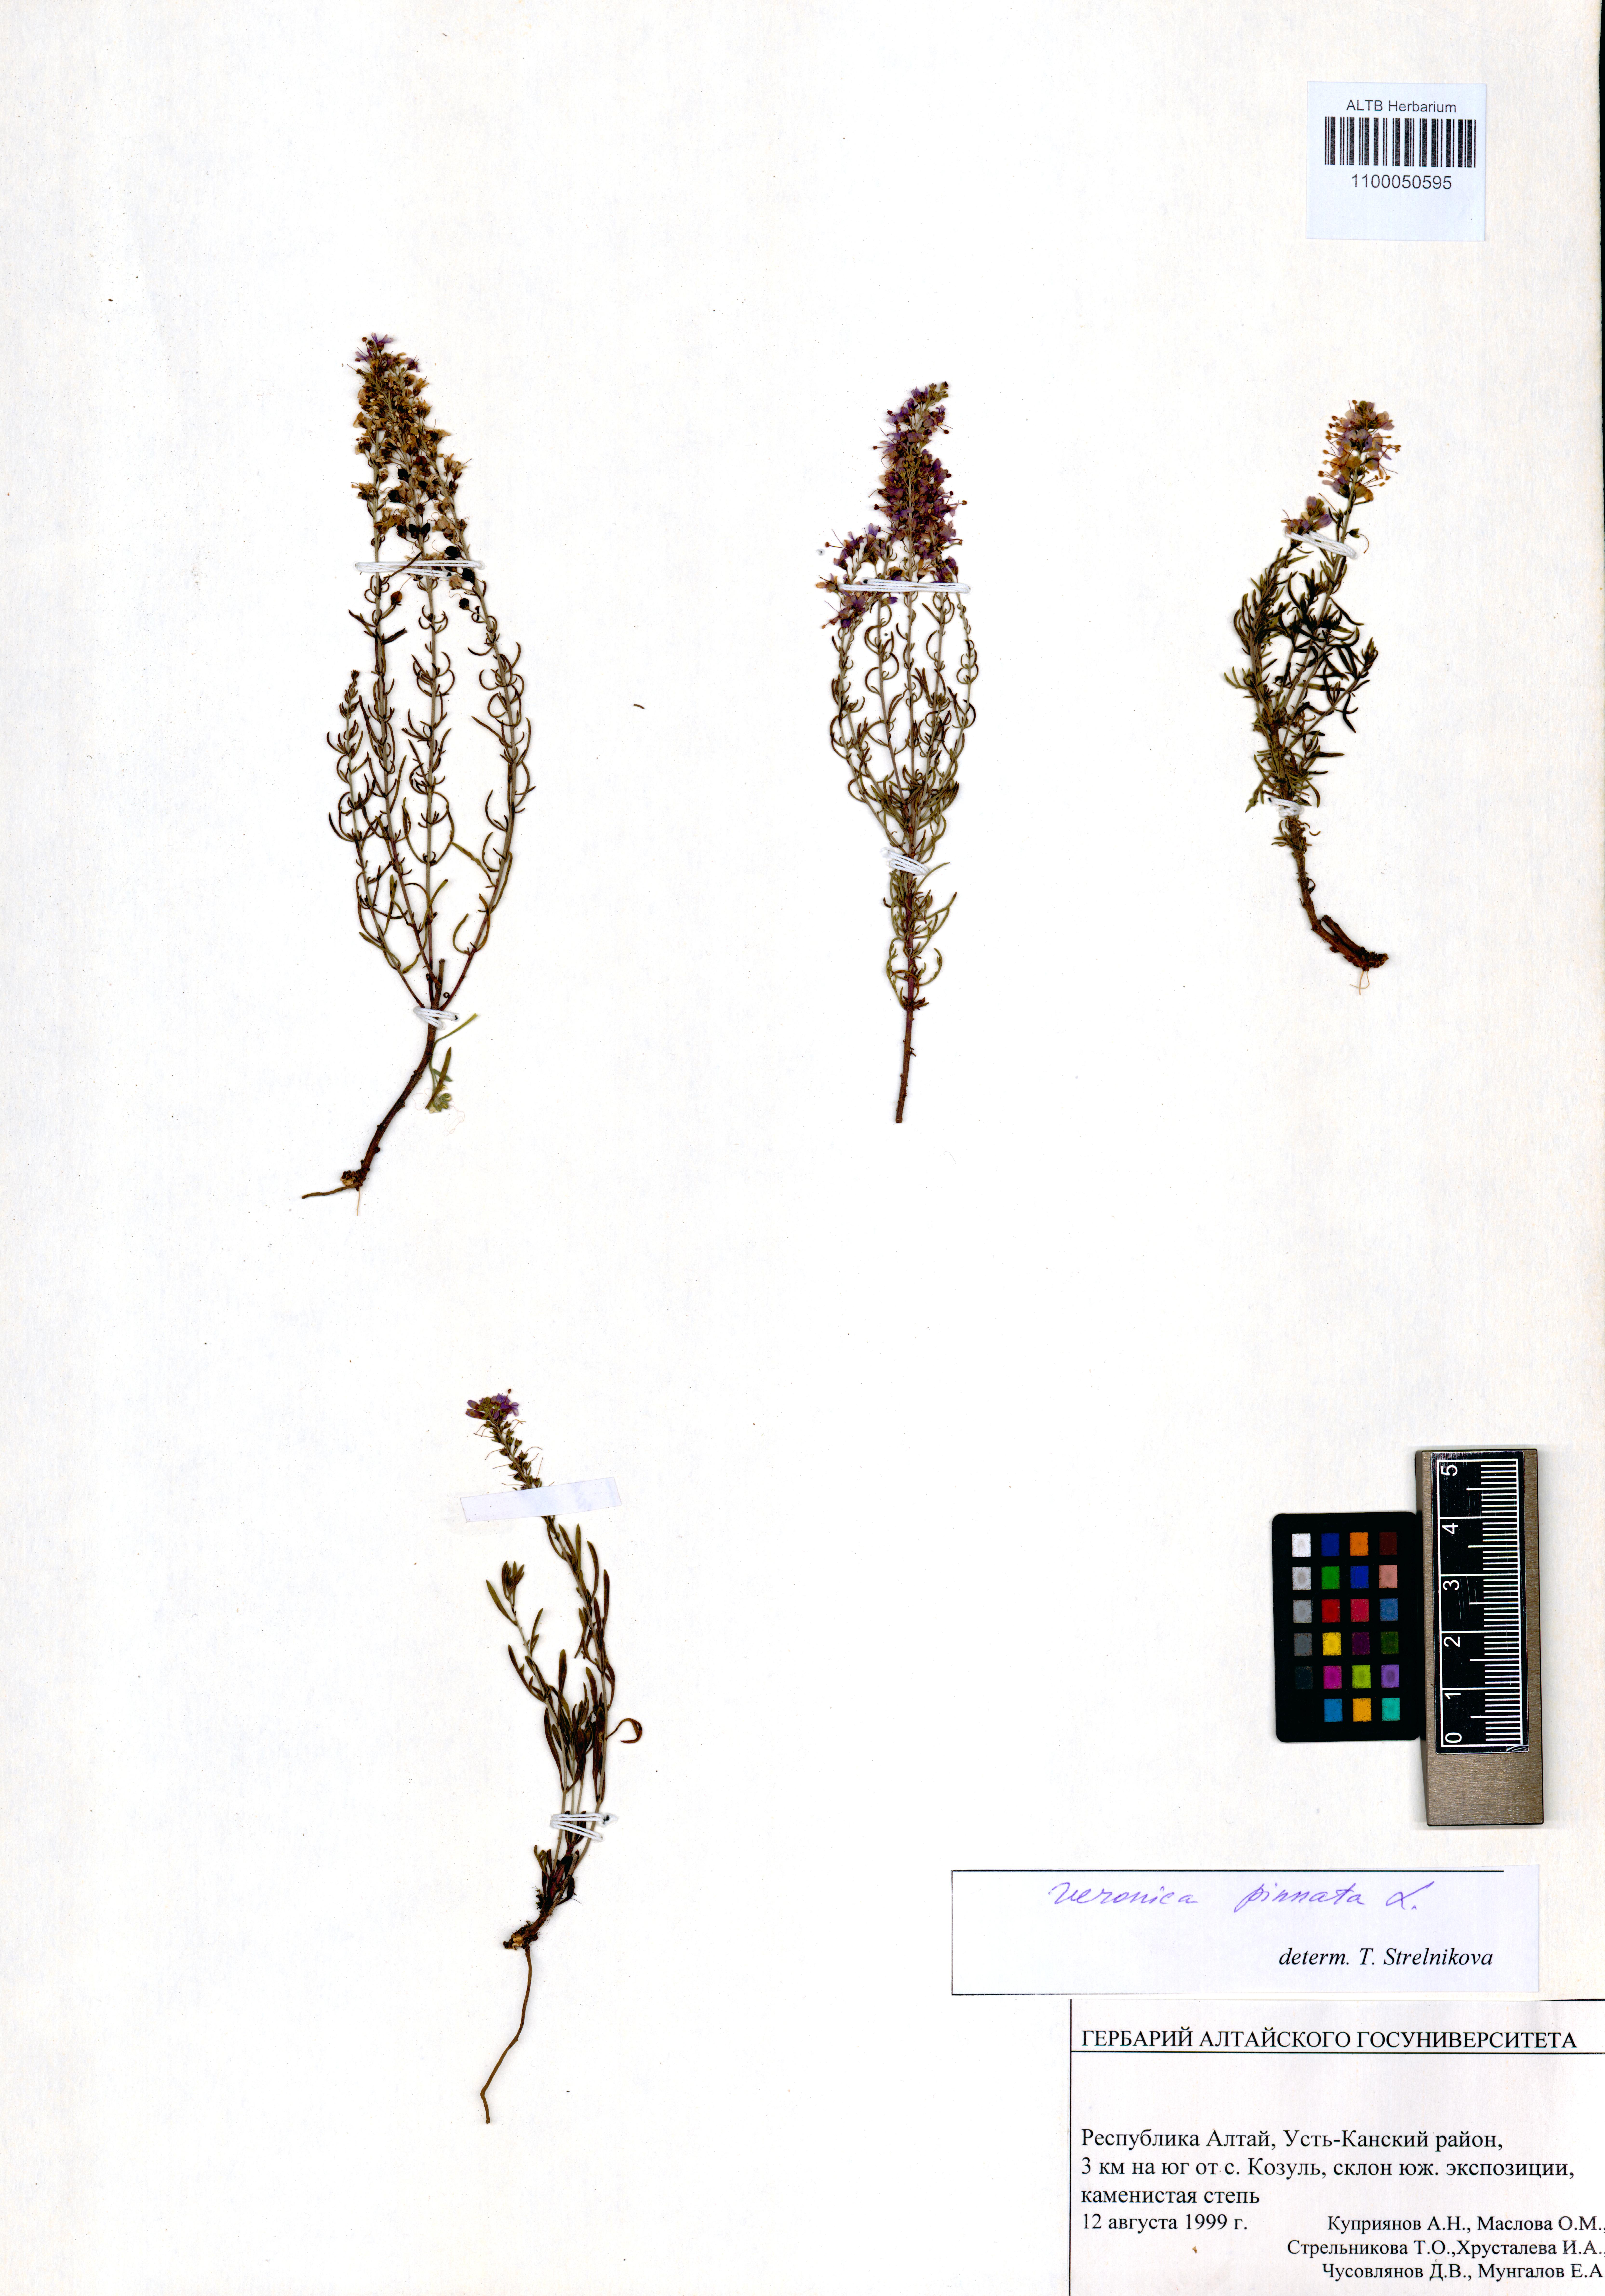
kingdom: Plantae
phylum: Tracheophyta
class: Magnoliopsida
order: Lamiales
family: Plantaginaceae
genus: Veronica
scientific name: Veronica pinnata
